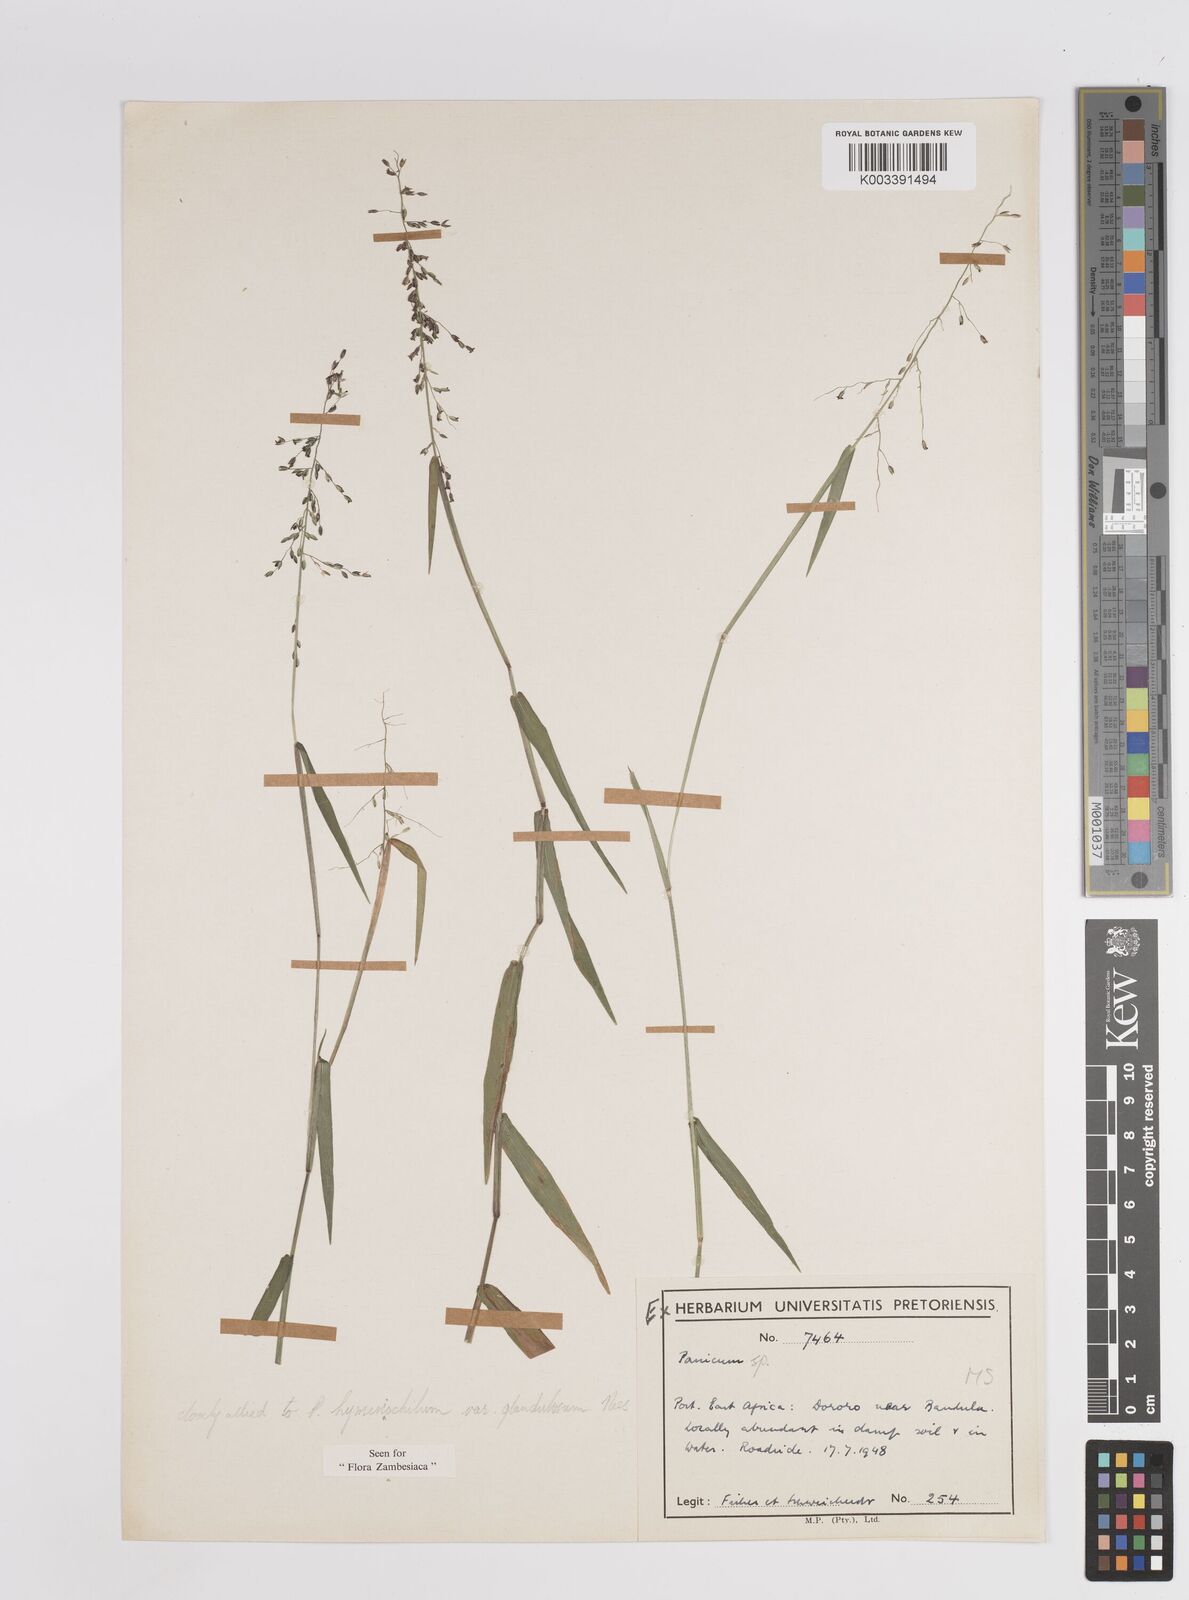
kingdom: Plantae
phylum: Tracheophyta
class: Liliopsida
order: Poales
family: Poaceae
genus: Adenochloa
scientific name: Adenochloa hymeniochila
